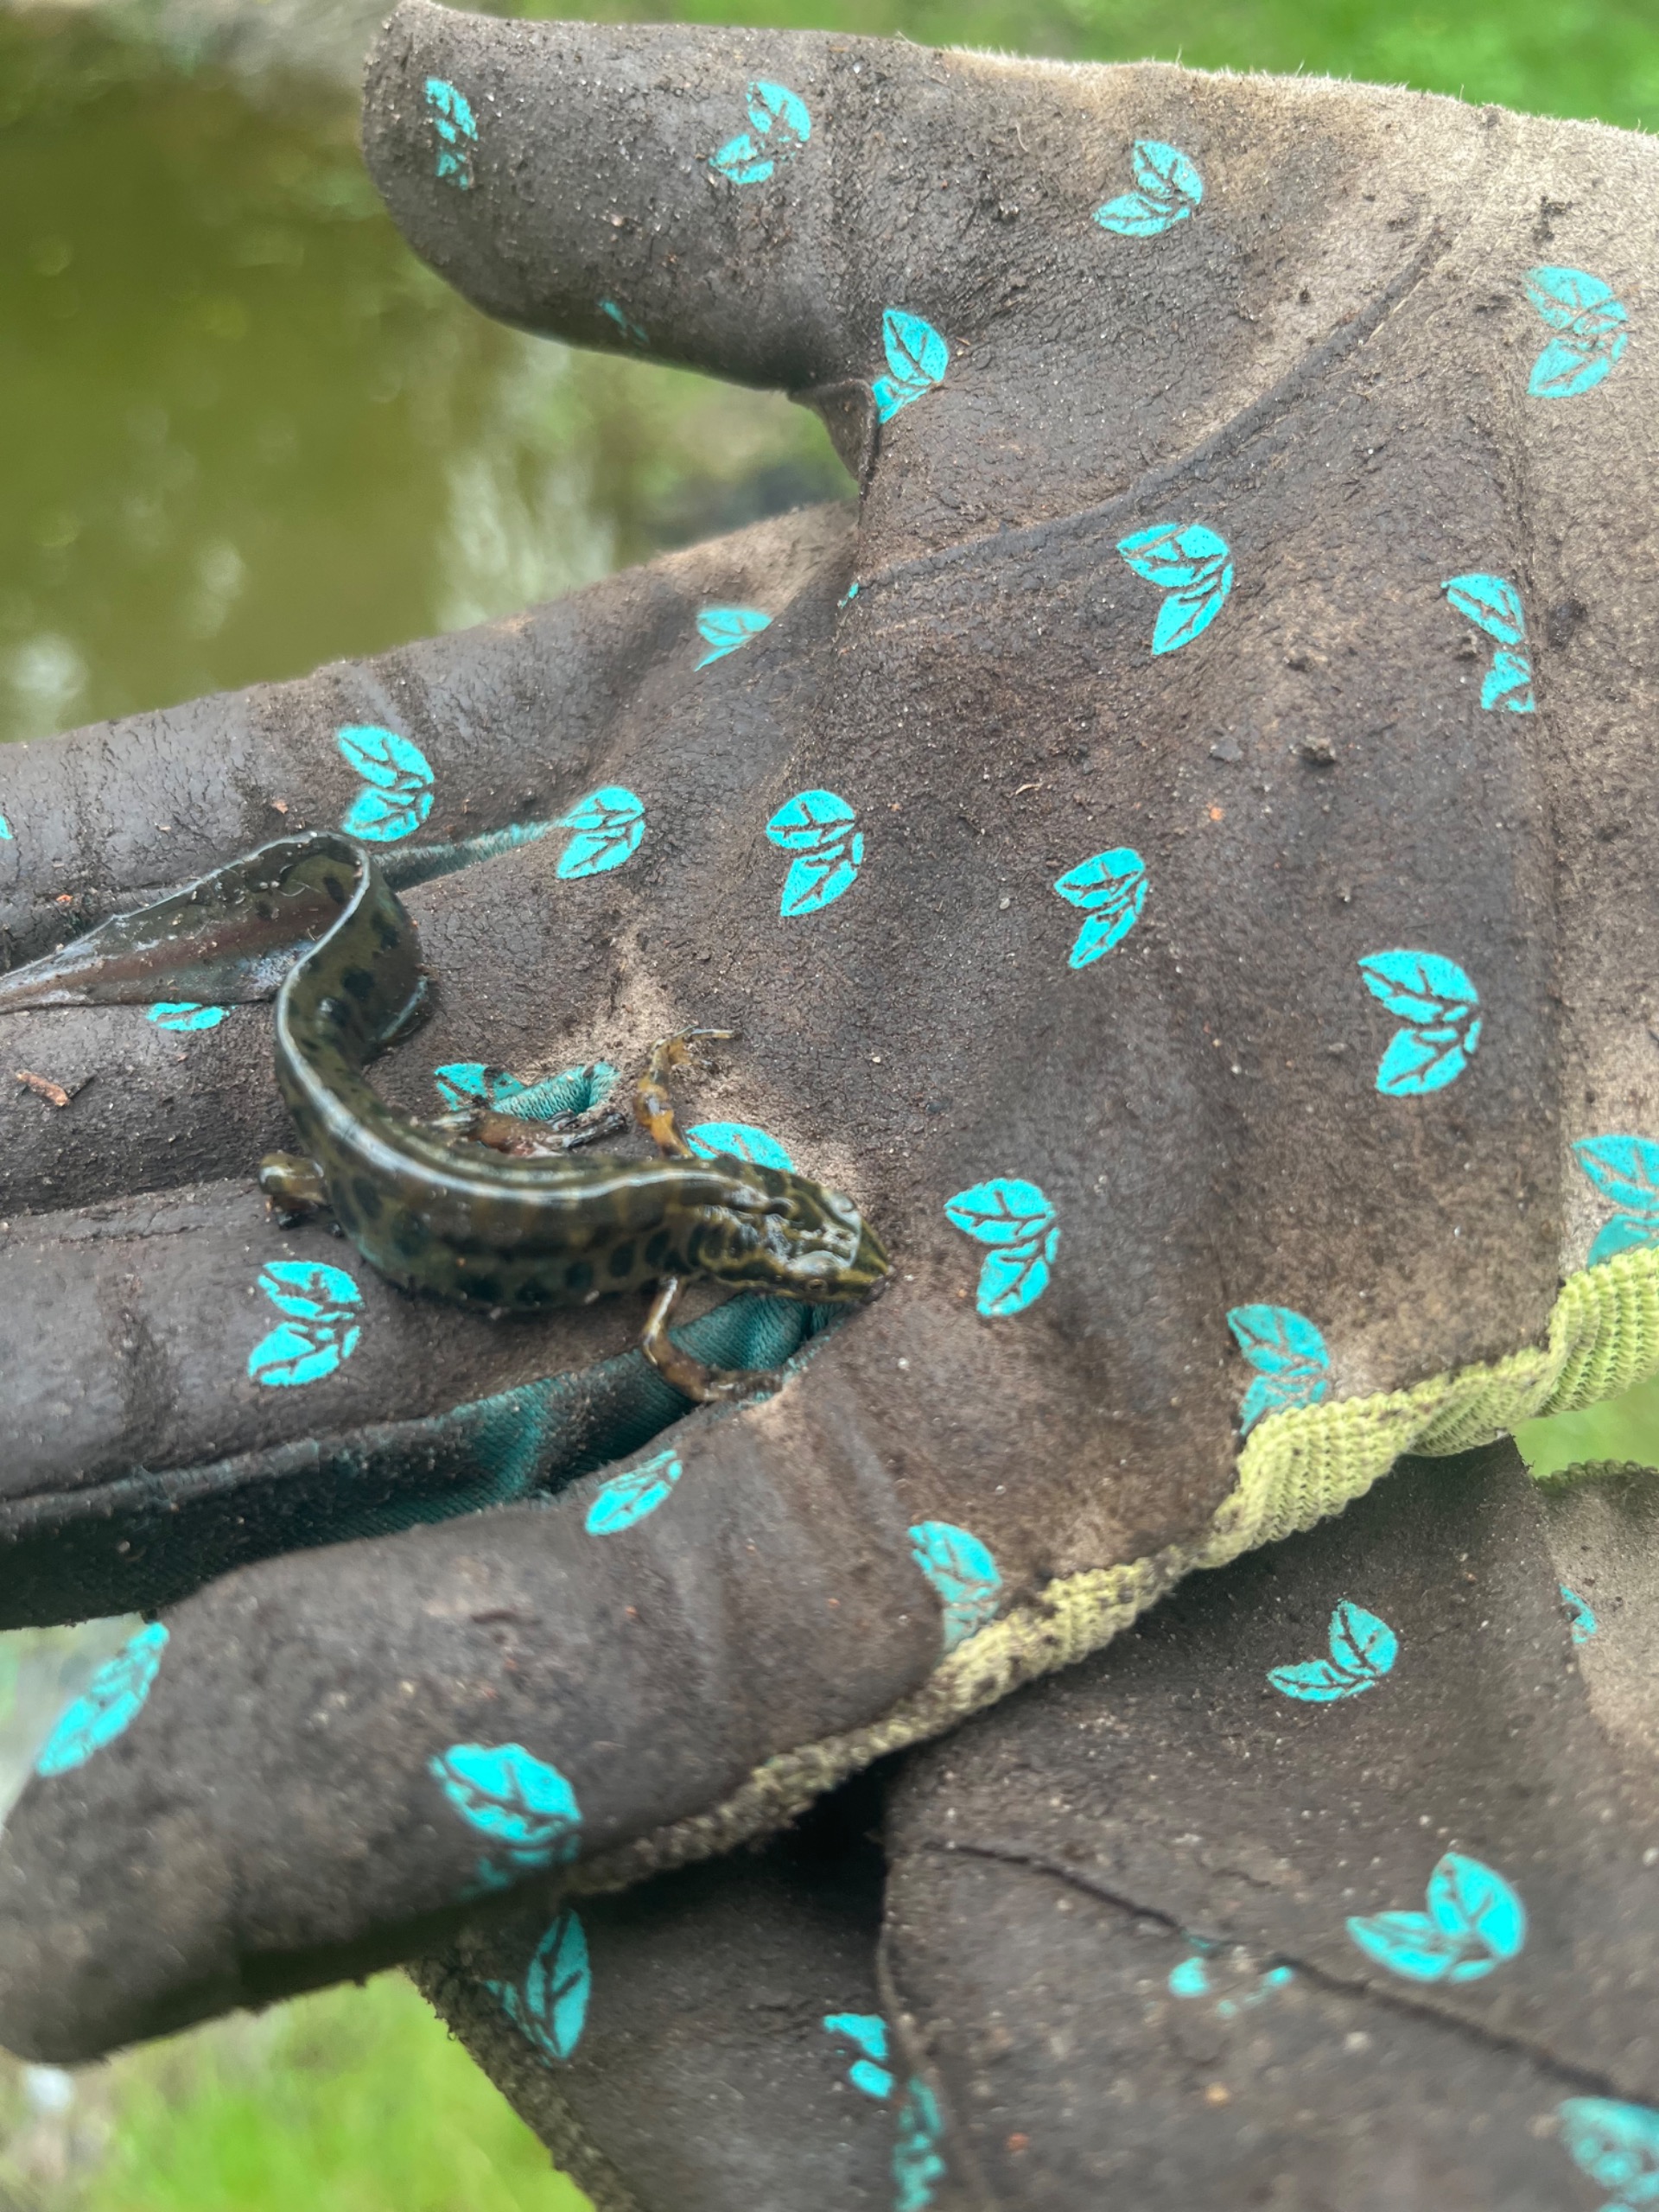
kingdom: Animalia
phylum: Chordata
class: Amphibia
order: Caudata
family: Salamandridae
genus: Lissotriton
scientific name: Lissotriton vulgaris
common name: Lille vandsalamander
